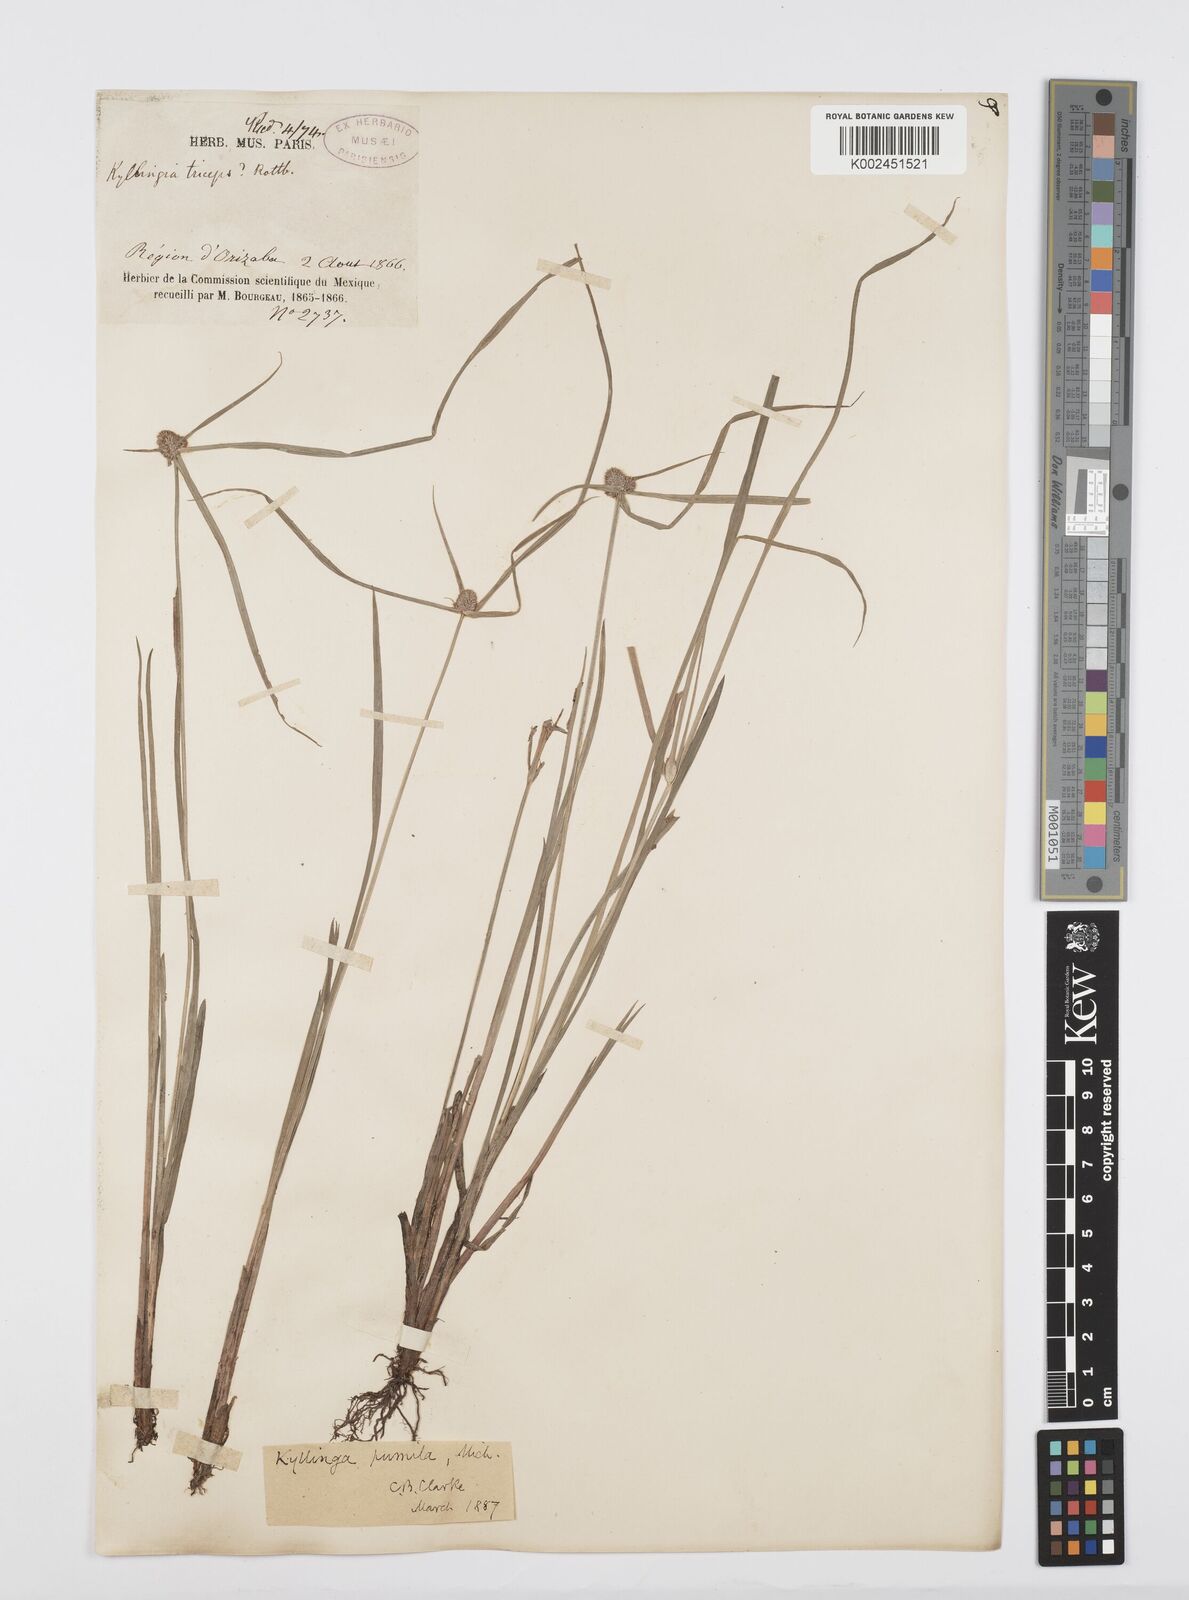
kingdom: Plantae
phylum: Tracheophyta
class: Liliopsida
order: Poales
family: Cyperaceae
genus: Cyperus
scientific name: Cyperus hortensis
